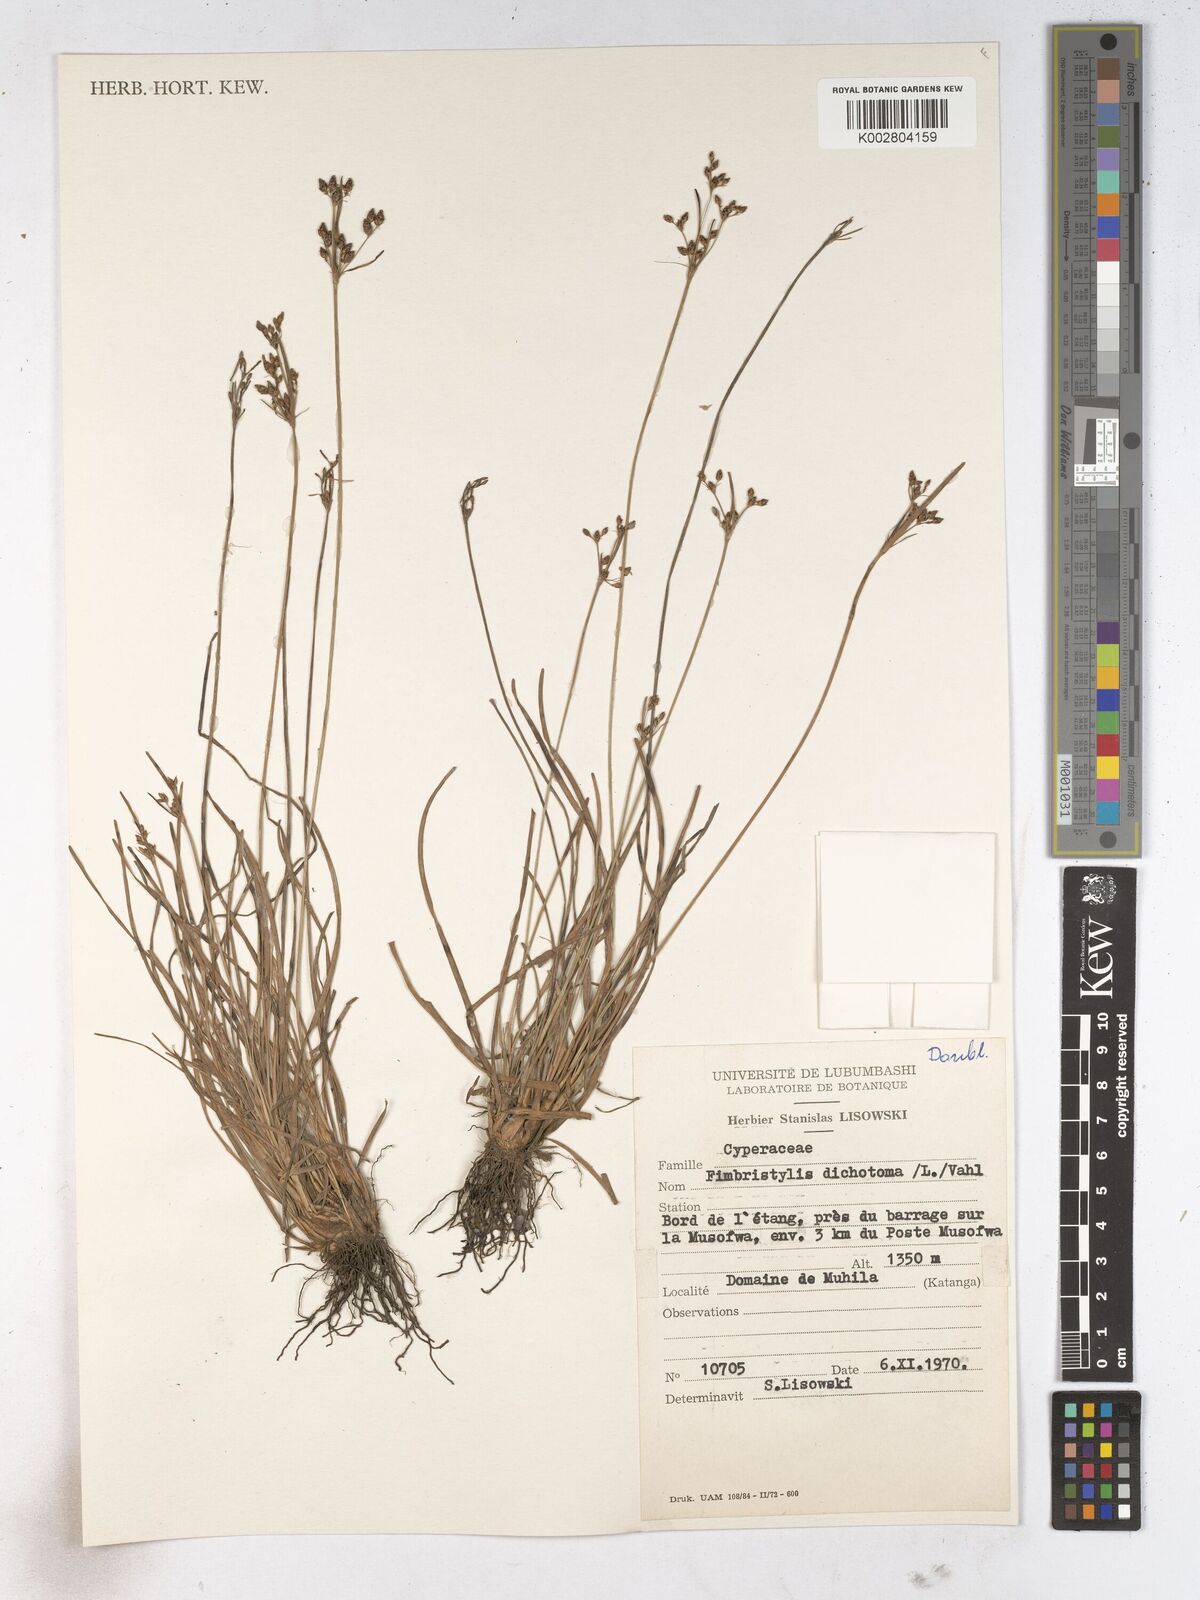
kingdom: Plantae
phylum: Tracheophyta
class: Liliopsida
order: Poales
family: Cyperaceae
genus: Fimbristylis
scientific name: Fimbristylis dichotoma
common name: Forked fimbry
